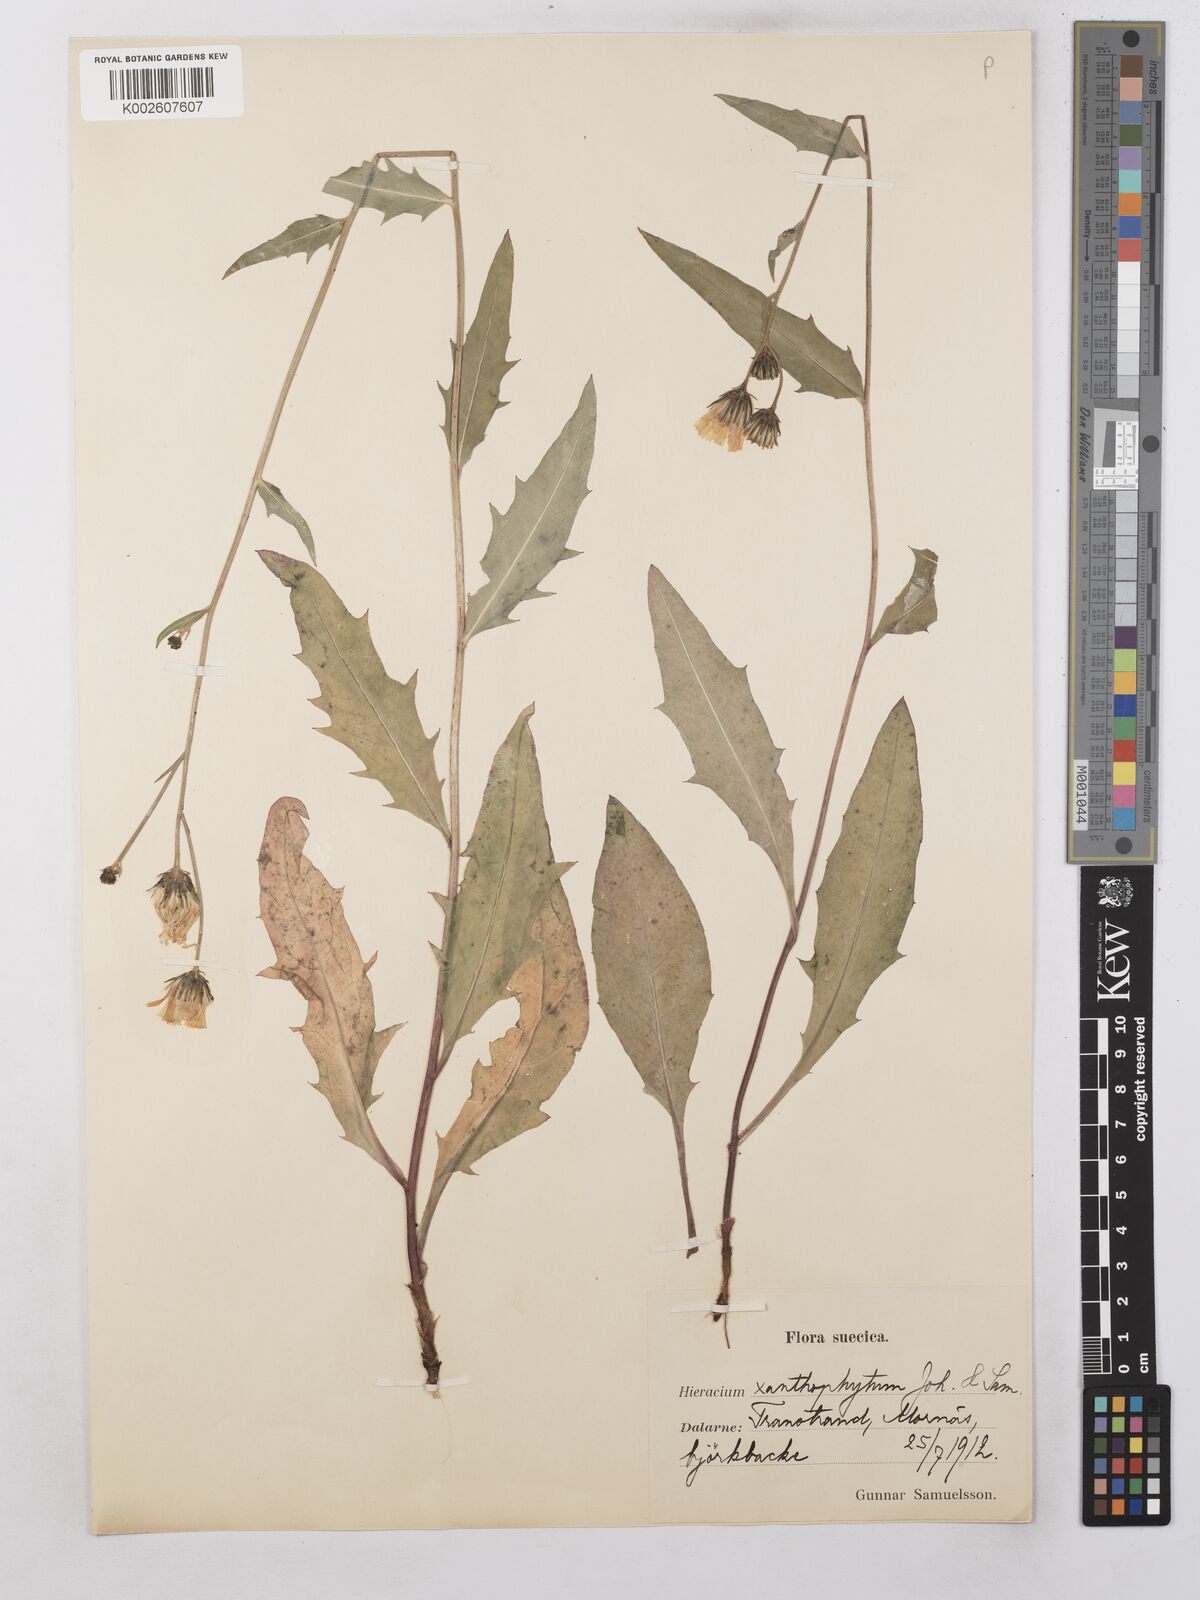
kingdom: Plantae
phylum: Tracheophyta
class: Magnoliopsida
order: Asterales
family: Asteraceae
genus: Hieracium
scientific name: Hieracium subramosum
